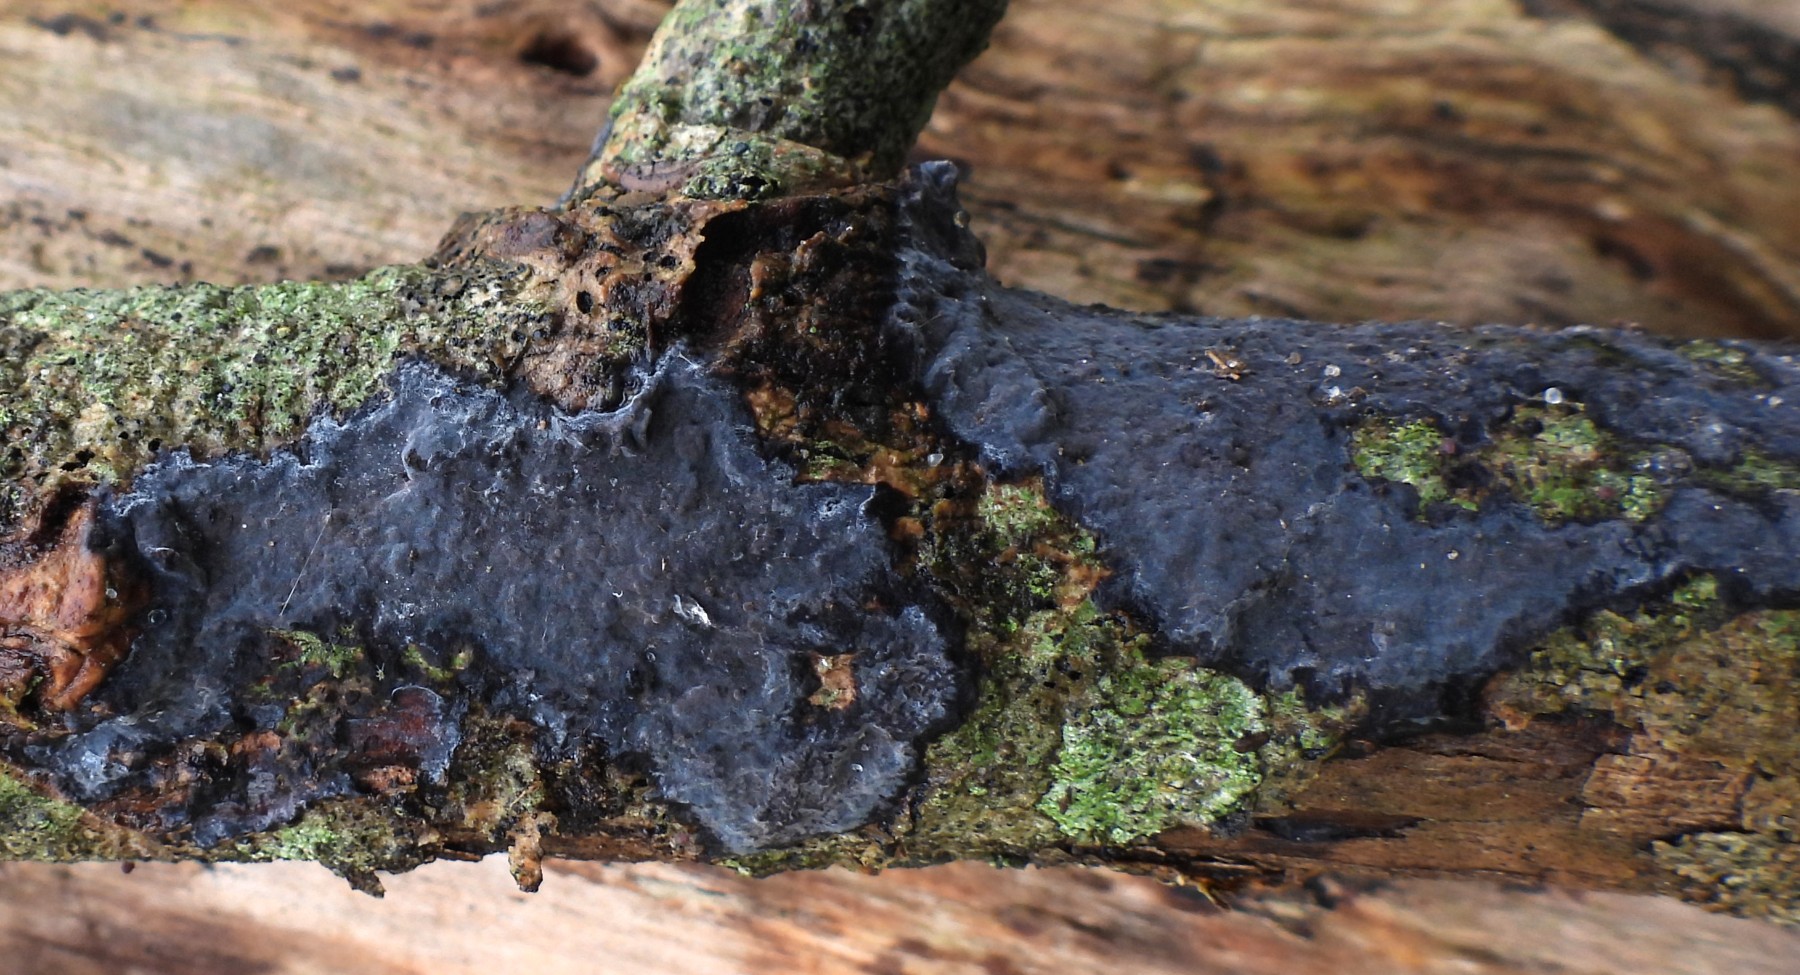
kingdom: Fungi
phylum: Basidiomycota
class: Agaricomycetes
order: Russulales
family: Peniophoraceae
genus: Peniophora
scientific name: Peniophora limitata
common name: mørkrandet voksskind
